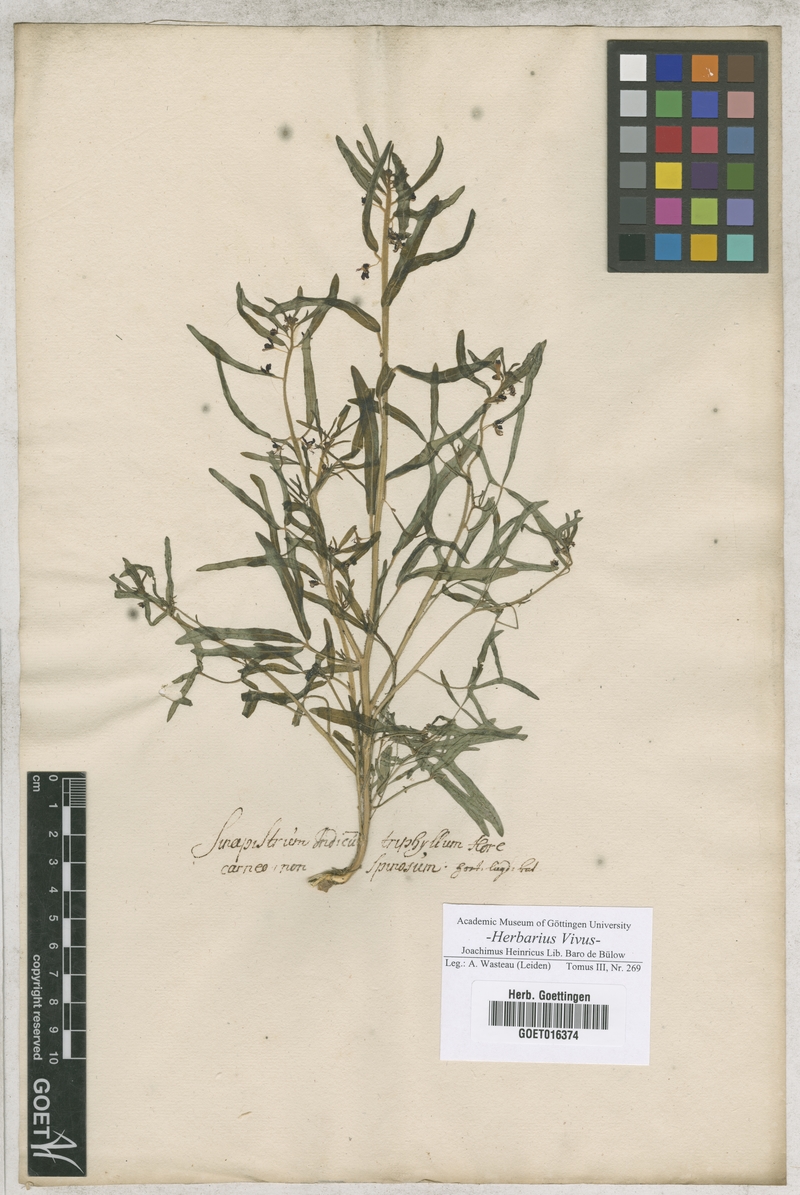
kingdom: Plantae
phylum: Tracheophyta
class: Magnoliopsida
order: Brassicales
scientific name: Brassicales
